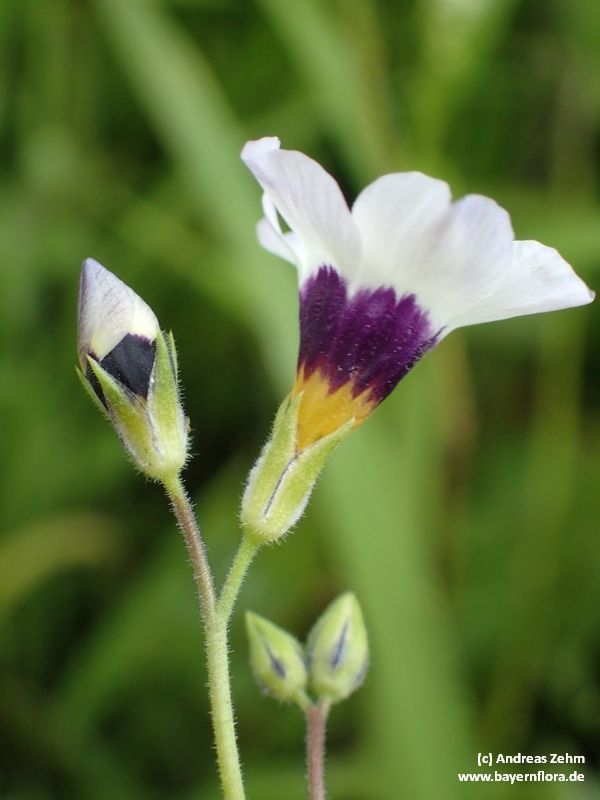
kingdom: Plantae
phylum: Tracheophyta
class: Magnoliopsida
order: Ericales
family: Polemoniaceae
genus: Gilia
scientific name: Gilia tricolor
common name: Bird's-eyes
